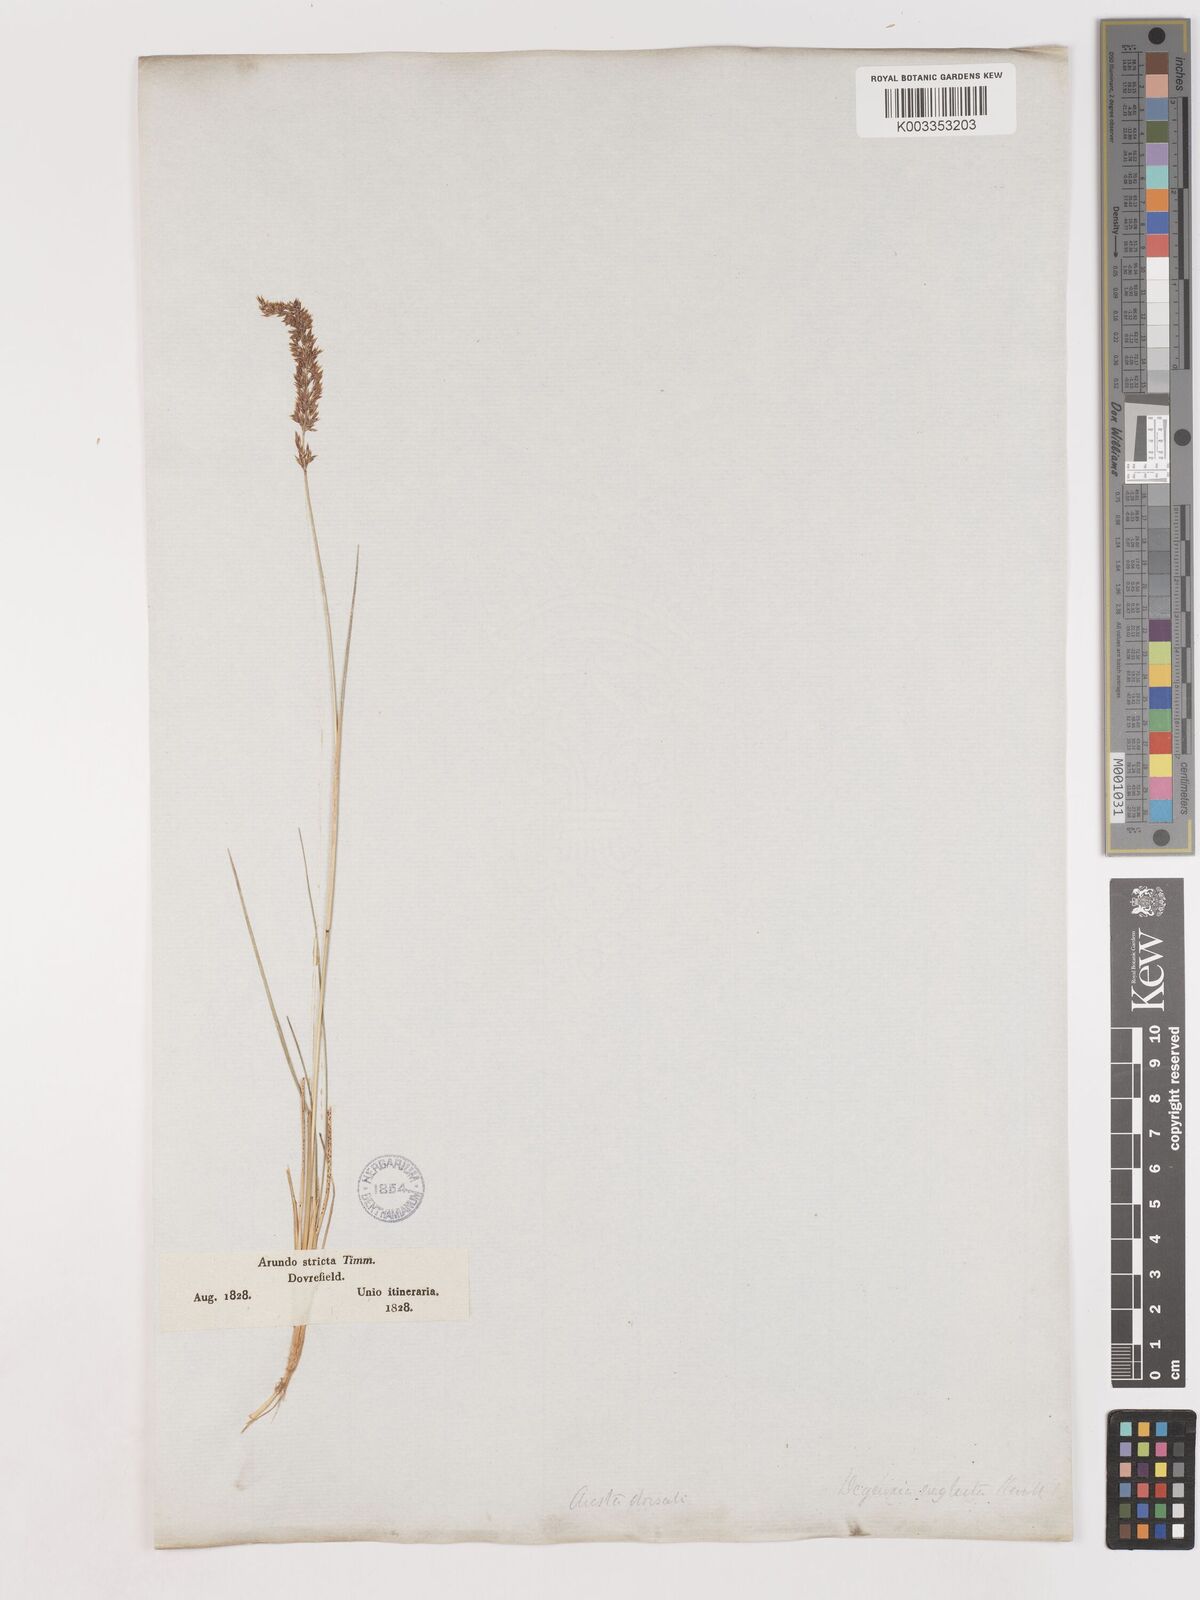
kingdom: Plantae
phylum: Tracheophyta
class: Liliopsida
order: Poales
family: Poaceae
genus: Cinnagrostis
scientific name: Cinnagrostis recta
